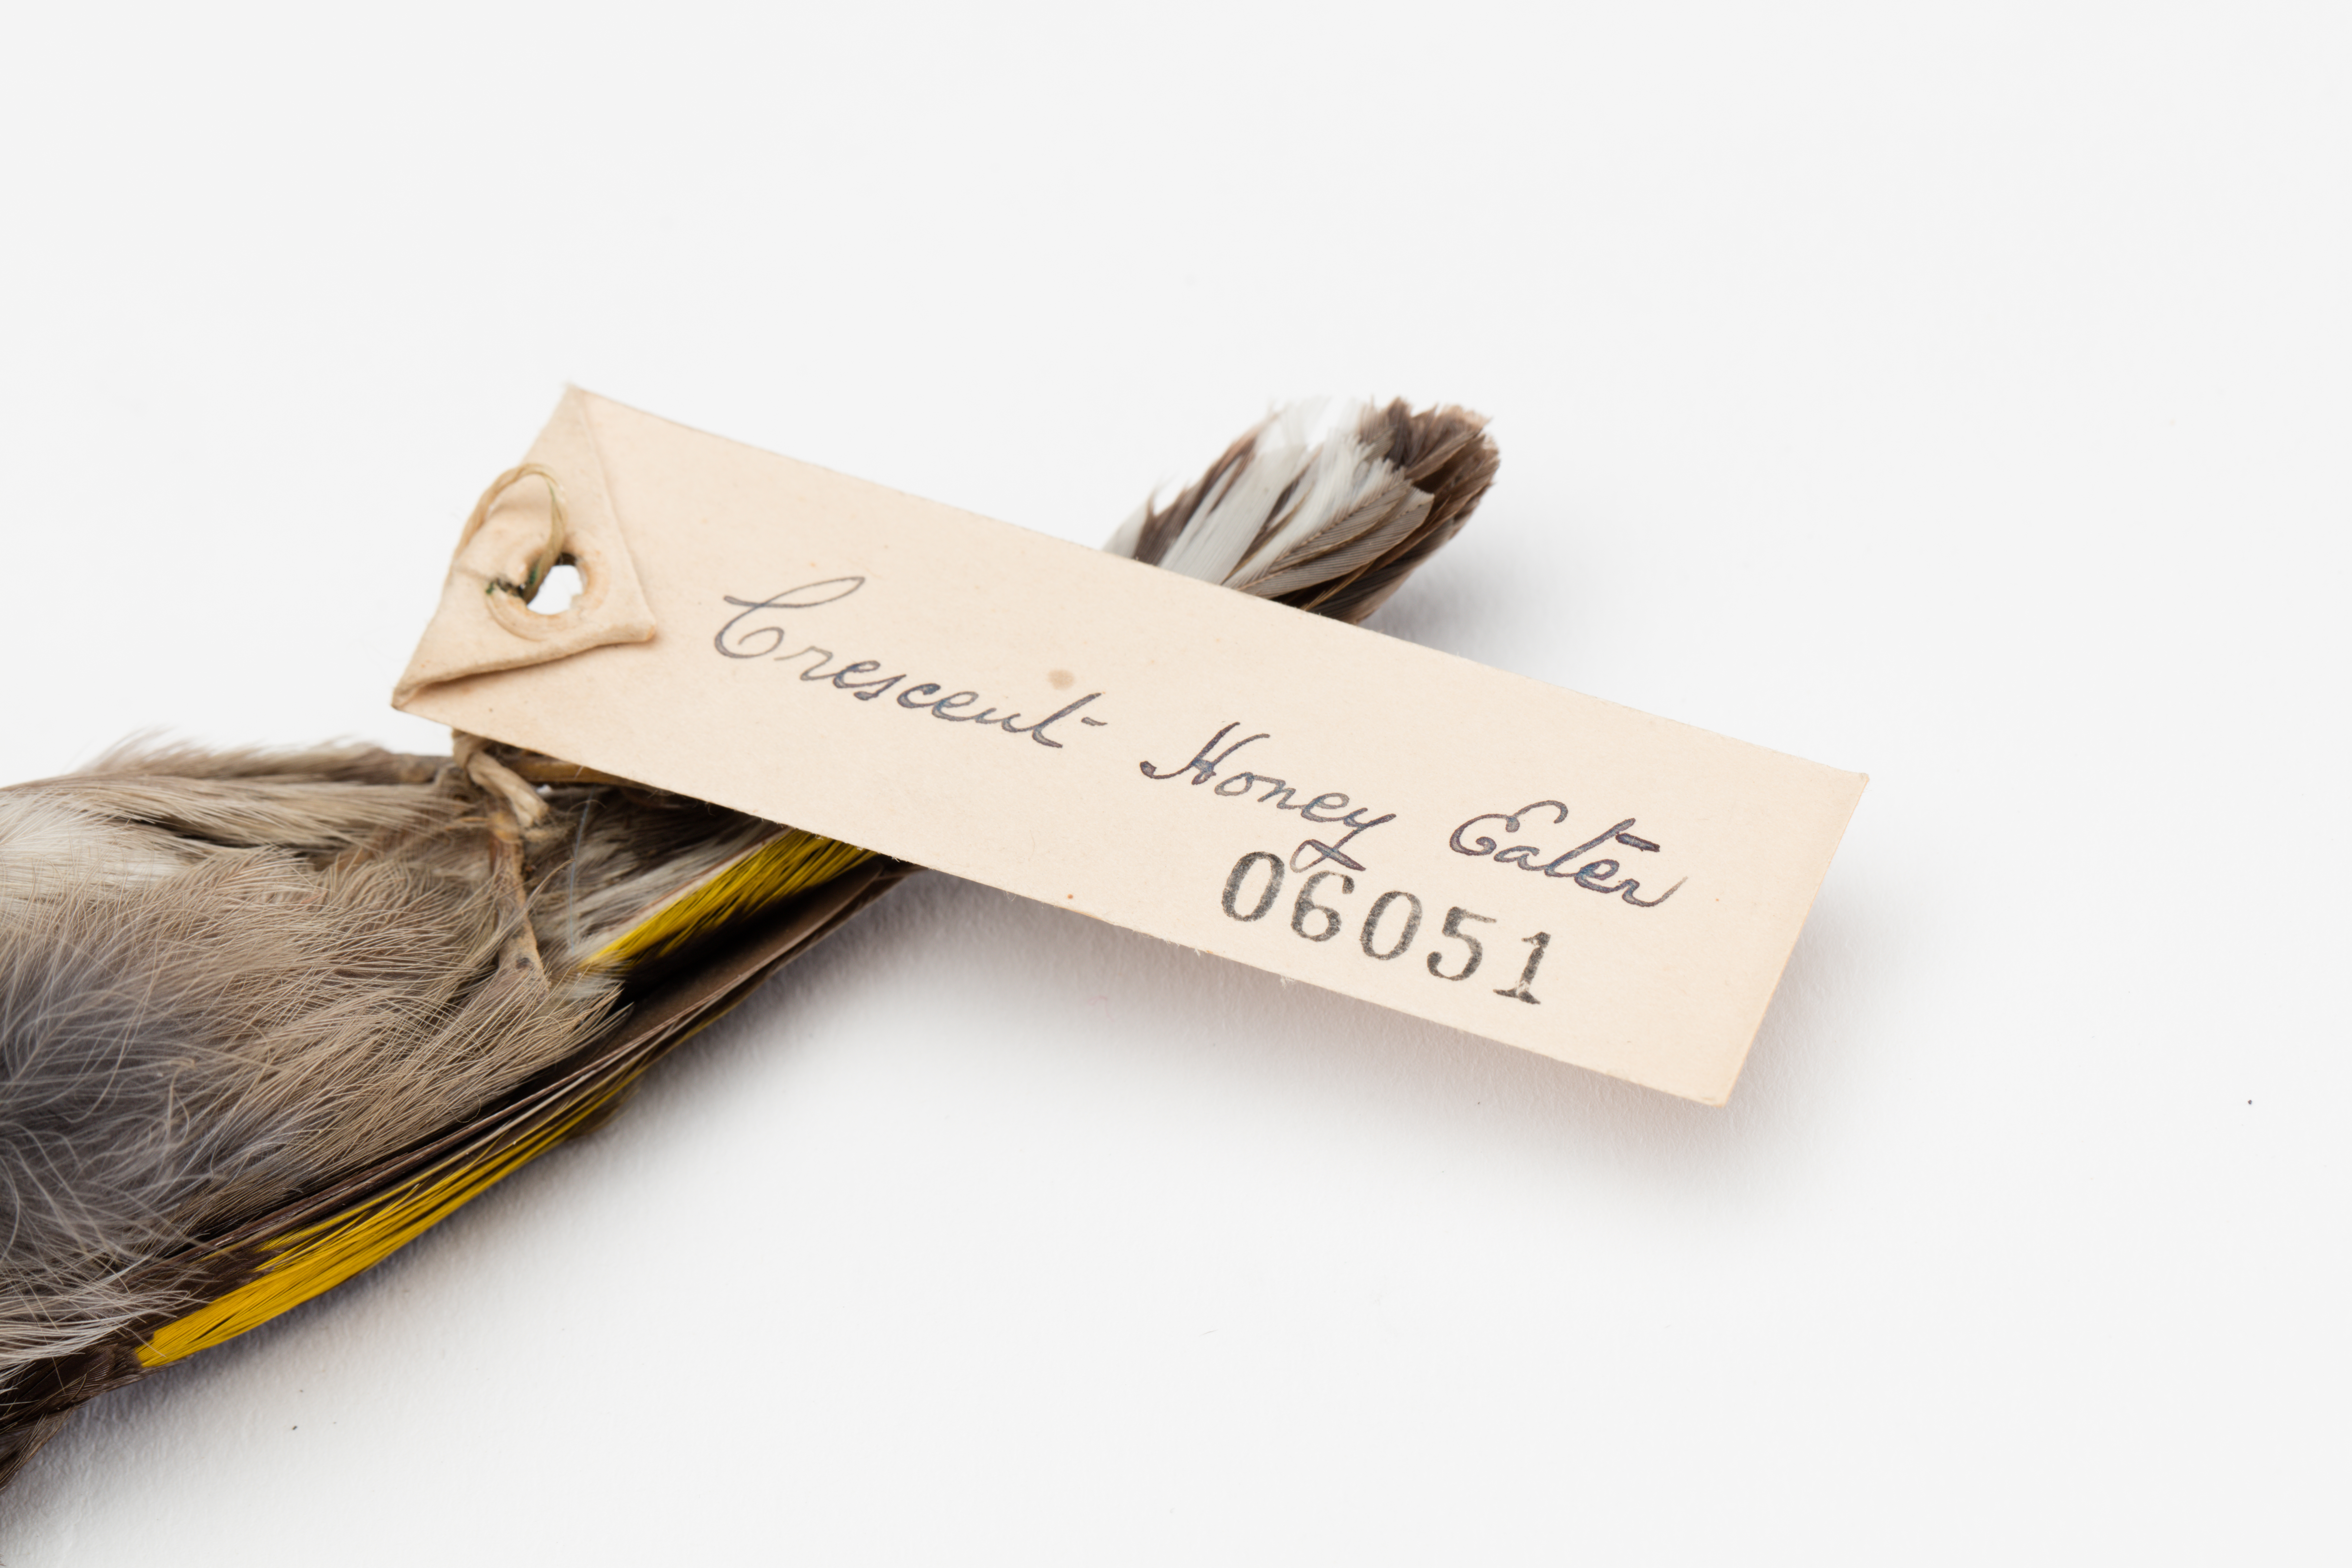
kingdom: Animalia
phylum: Chordata
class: Aves
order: Passeriformes
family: Meliphagidae
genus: Phylidonyris
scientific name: Phylidonyris pyrrhopterus
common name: Crescent honeyeater
